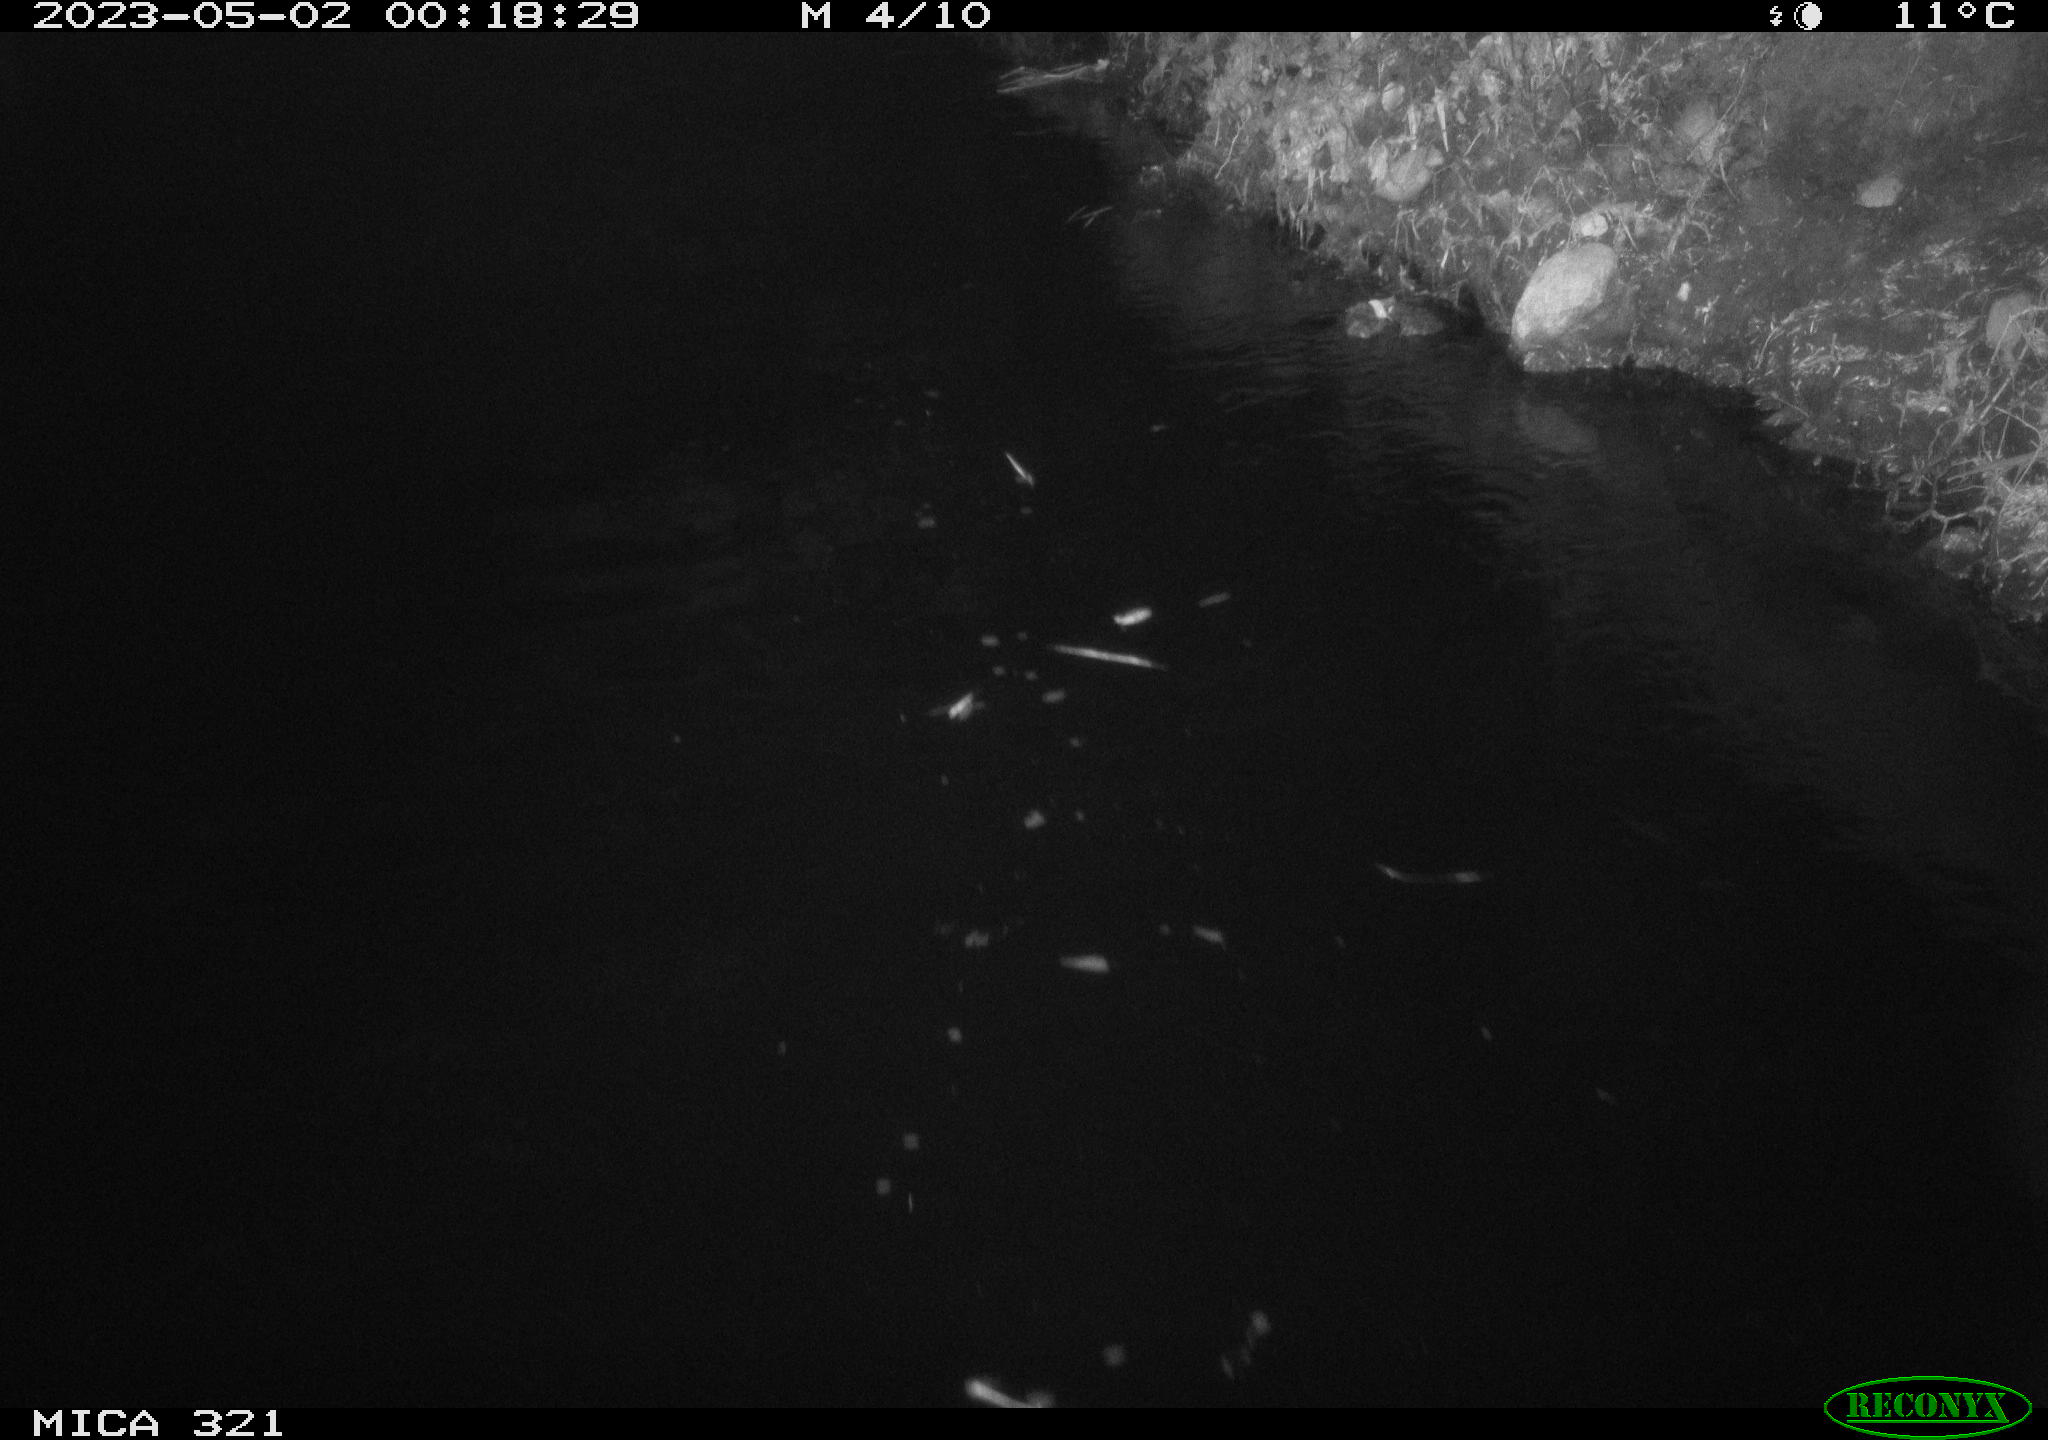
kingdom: Animalia
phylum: Chordata
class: Aves
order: Anseriformes
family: Anatidae
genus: Anas
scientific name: Anas
